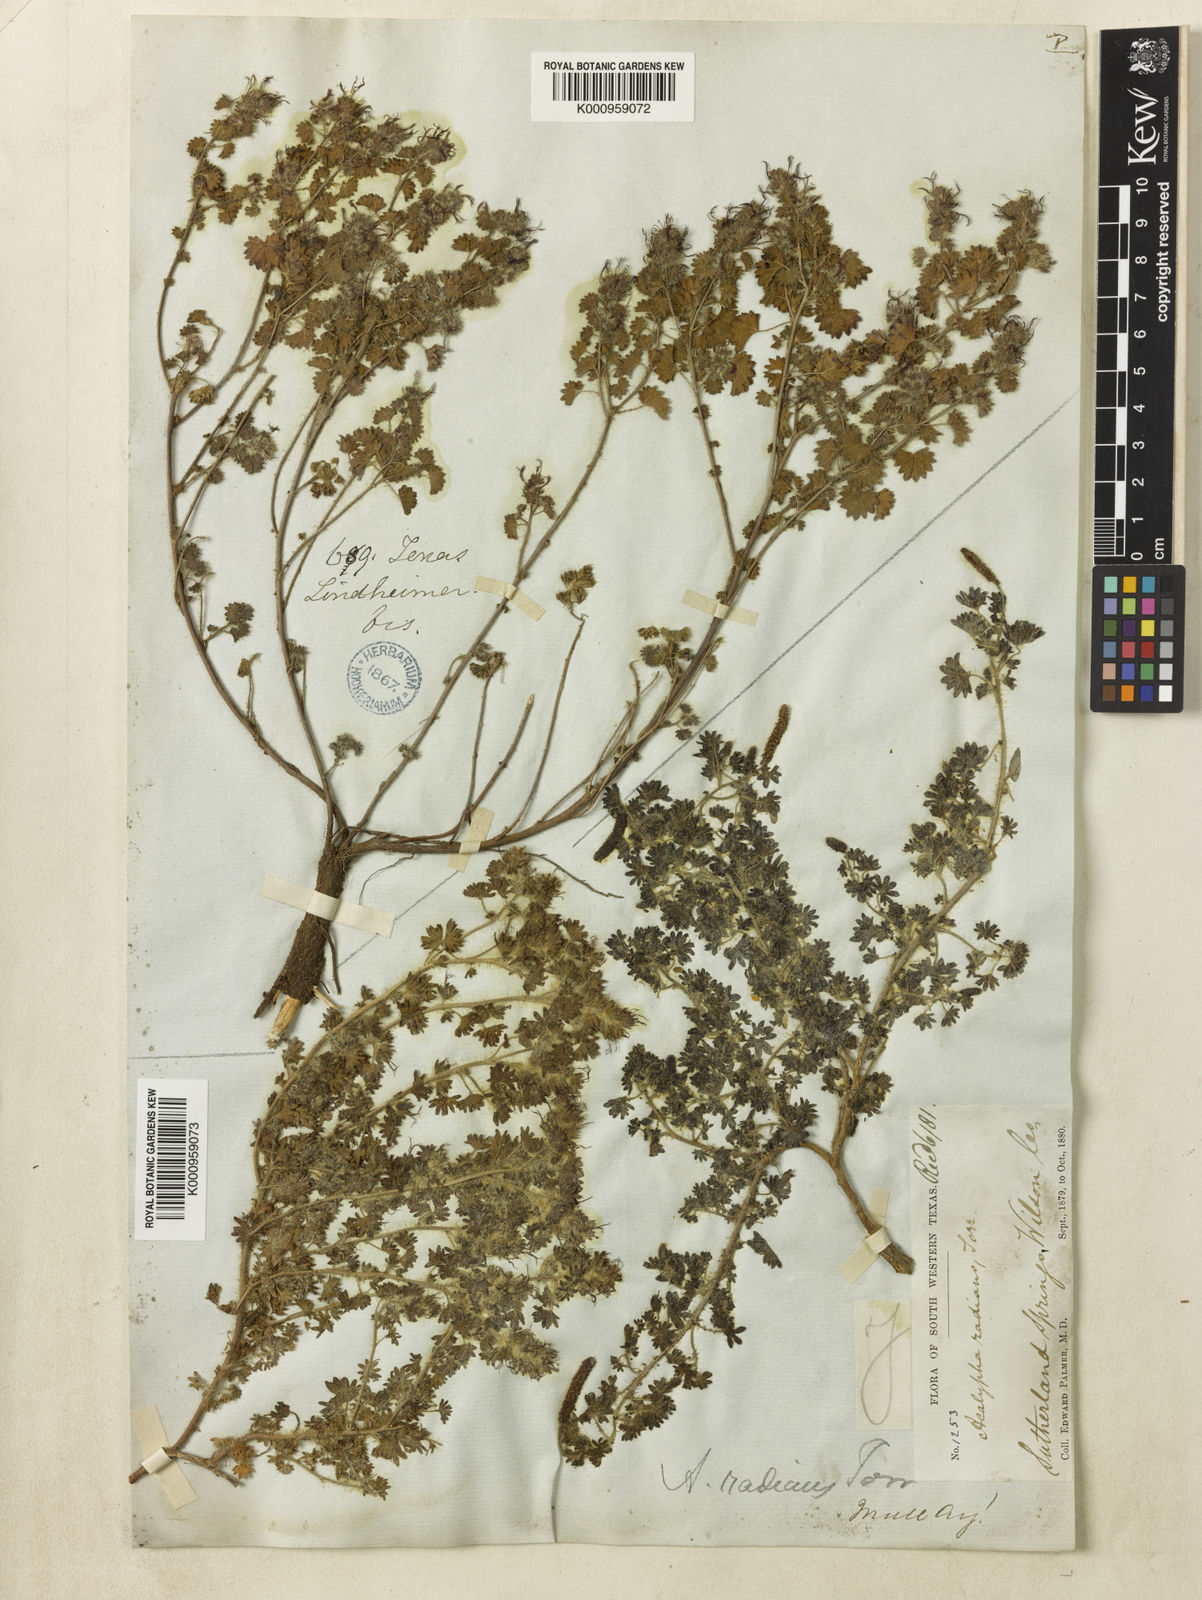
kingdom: Plantae
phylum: Tracheophyta
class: Magnoliopsida
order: Malpighiales
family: Euphorbiaceae
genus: Acalypha
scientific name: Acalypha radians
